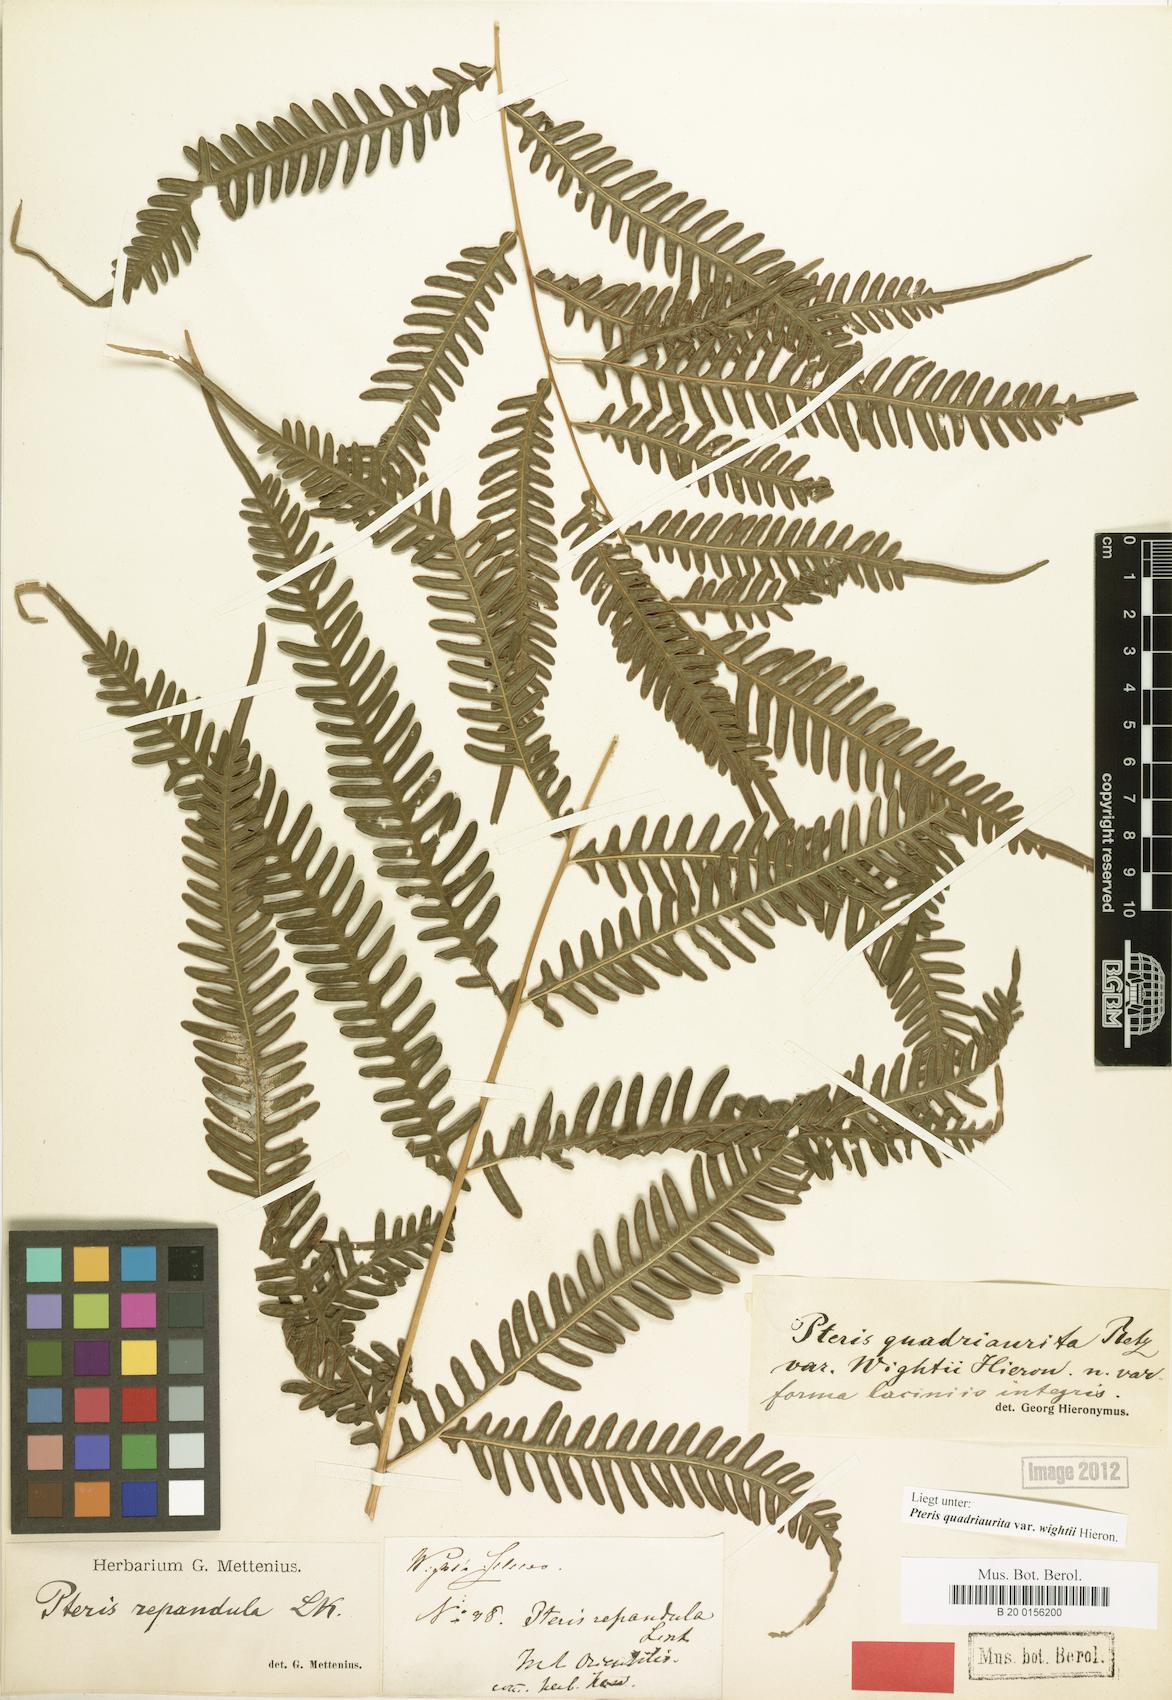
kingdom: Plantae
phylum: Tracheophyta
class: Polypodiopsida
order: Polypodiales
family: Pteridaceae
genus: Pteris
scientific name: Pteris quadriaurita
